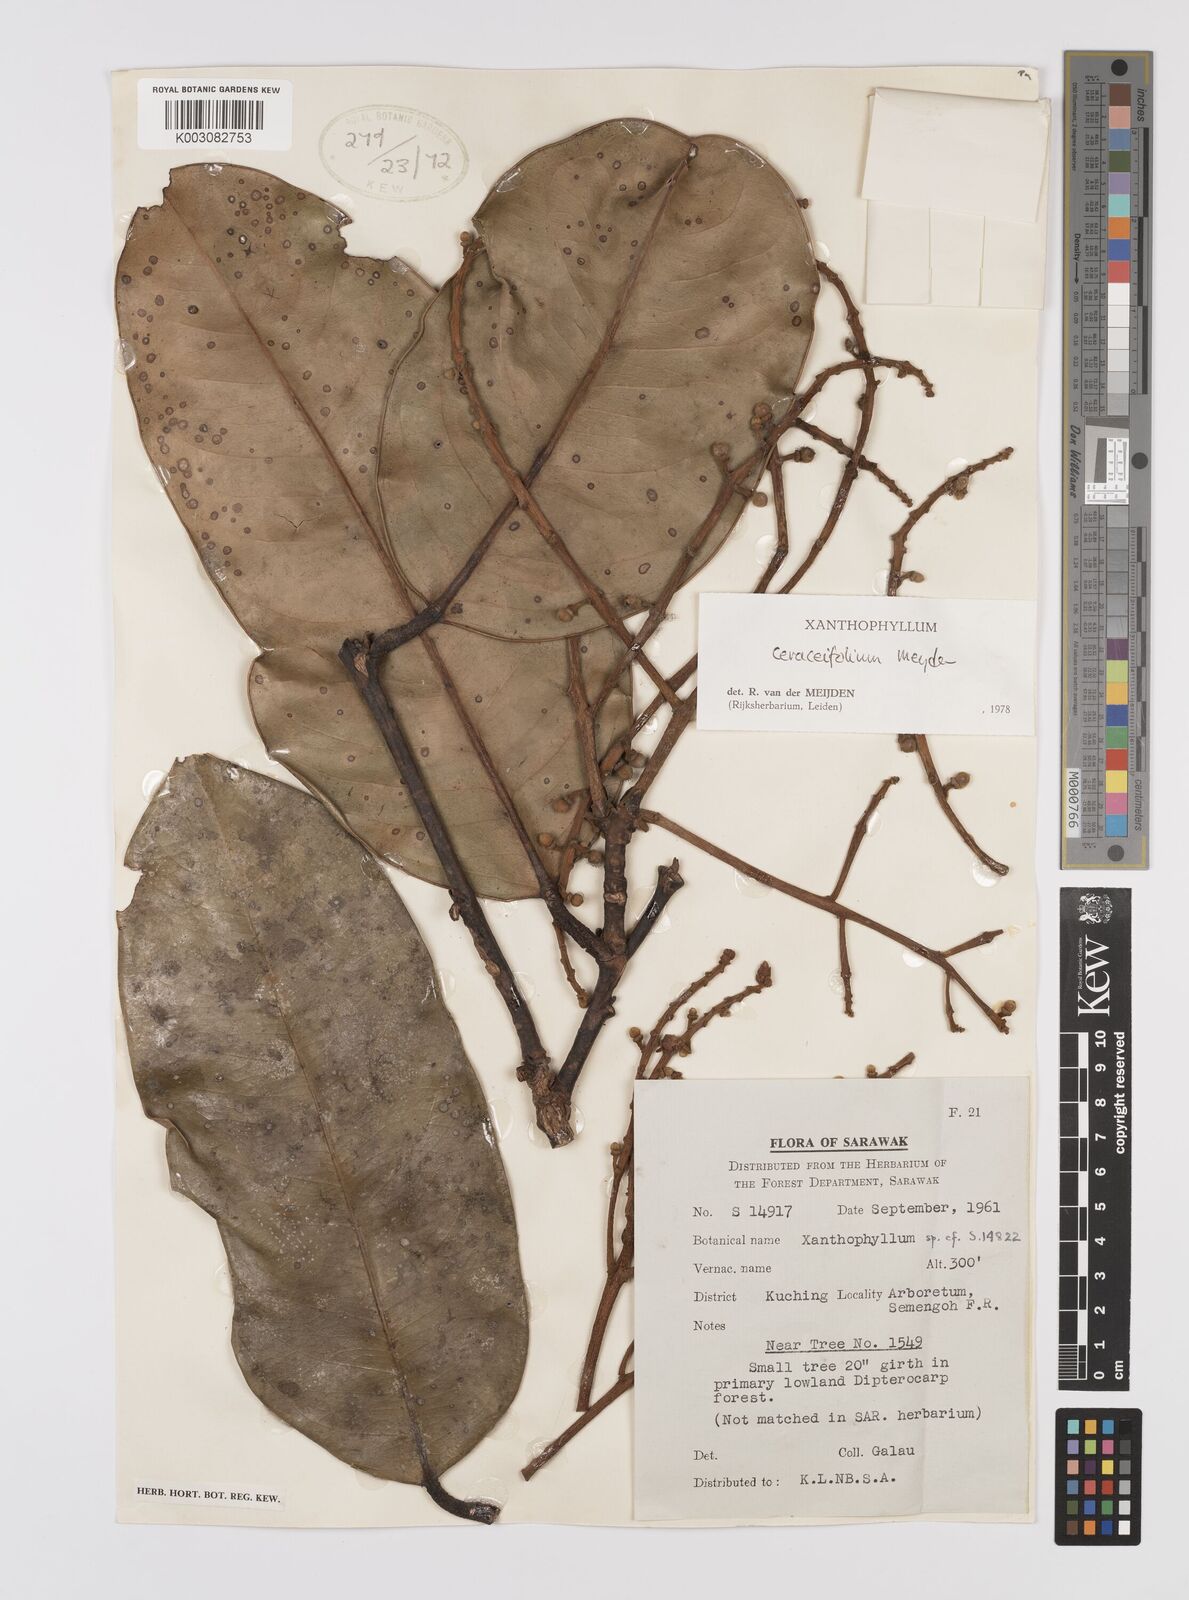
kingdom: Plantae
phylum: Tracheophyta
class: Magnoliopsida
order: Fabales
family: Polygalaceae
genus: Xanthophyllum
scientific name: Xanthophyllum
